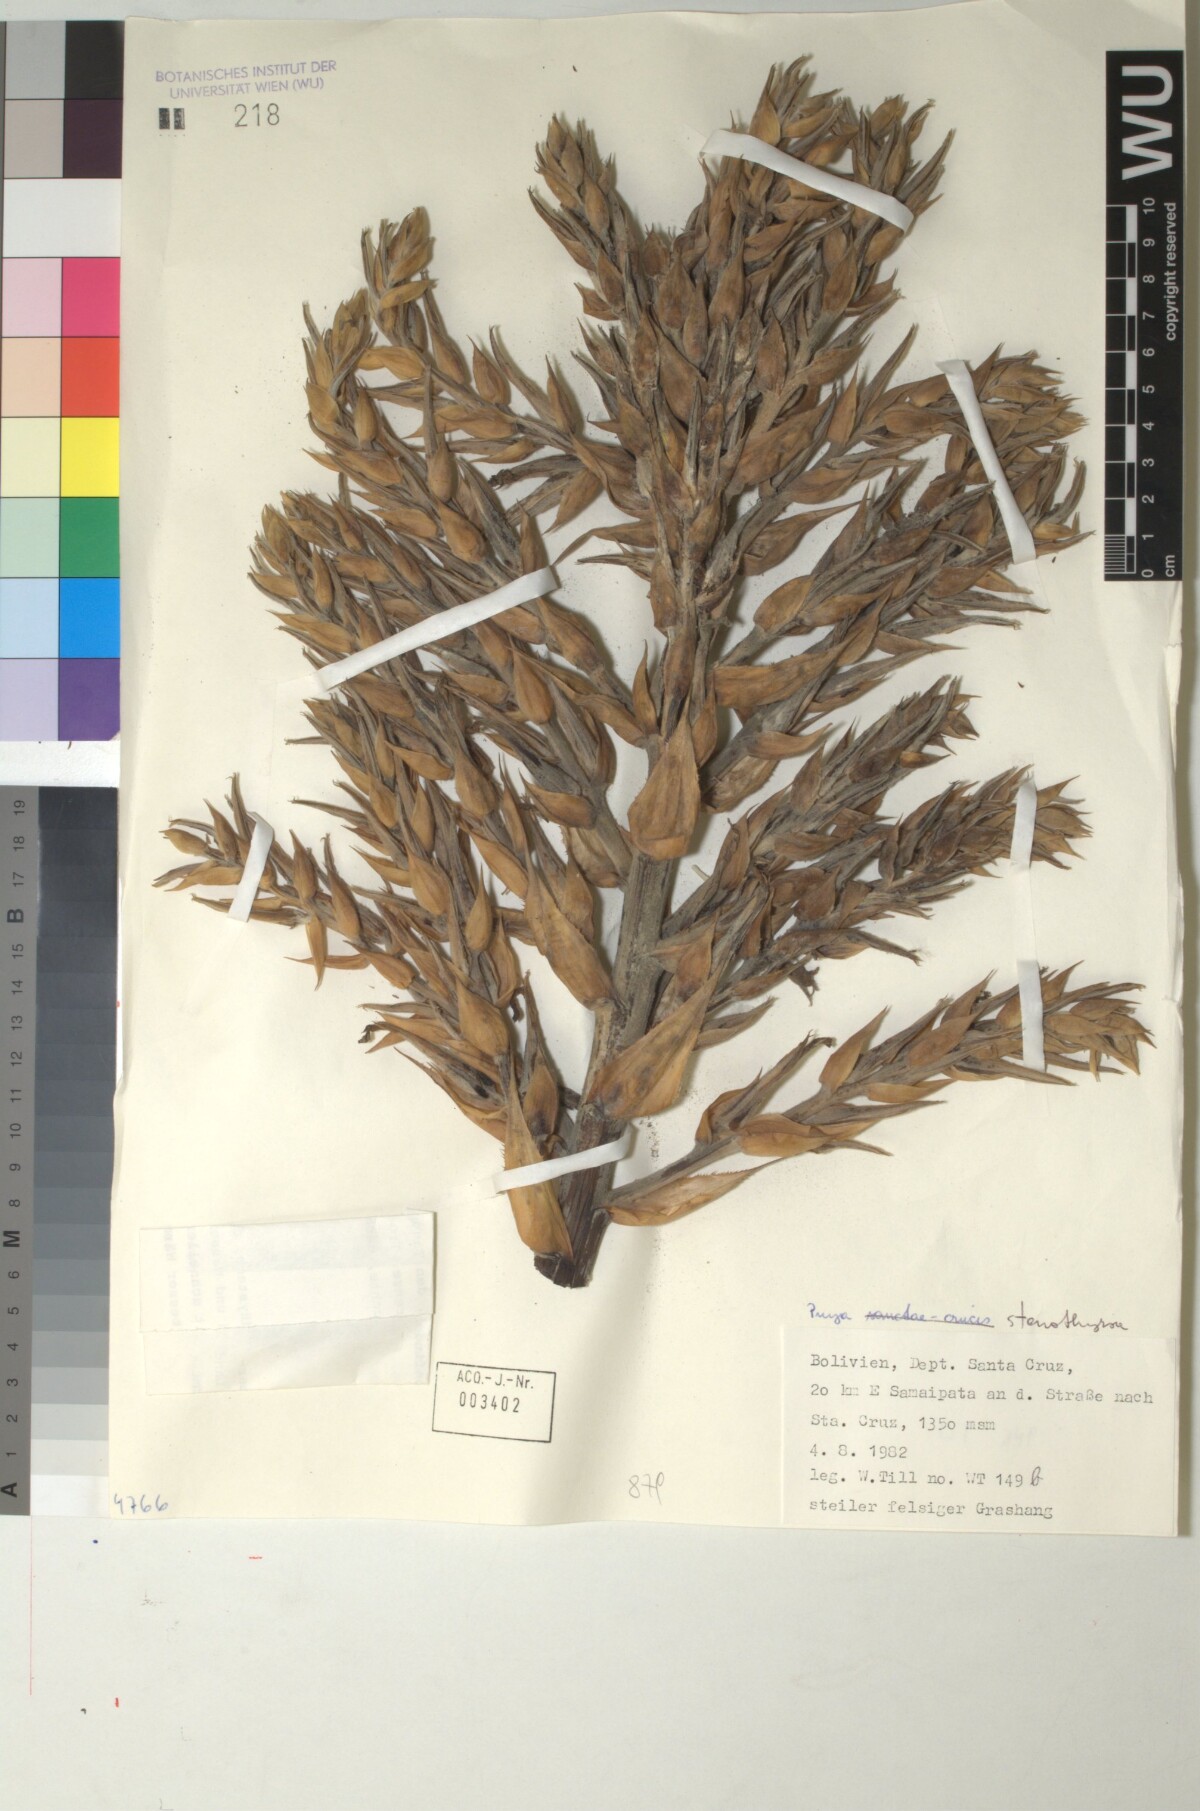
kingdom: Plantae
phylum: Tracheophyta
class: Liliopsida
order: Poales
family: Bromeliaceae
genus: Puya
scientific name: Puya stenothyrsa
